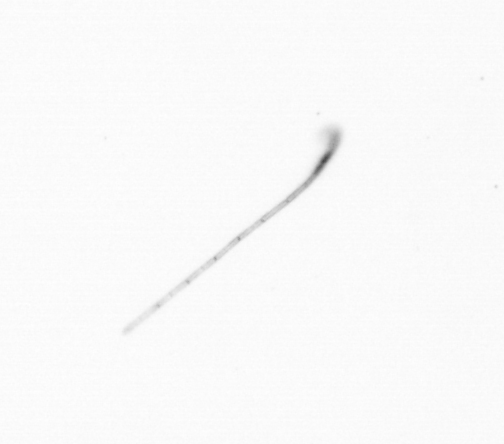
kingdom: Chromista
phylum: Ochrophyta
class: Bacillariophyceae
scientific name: Bacillariophyceae
